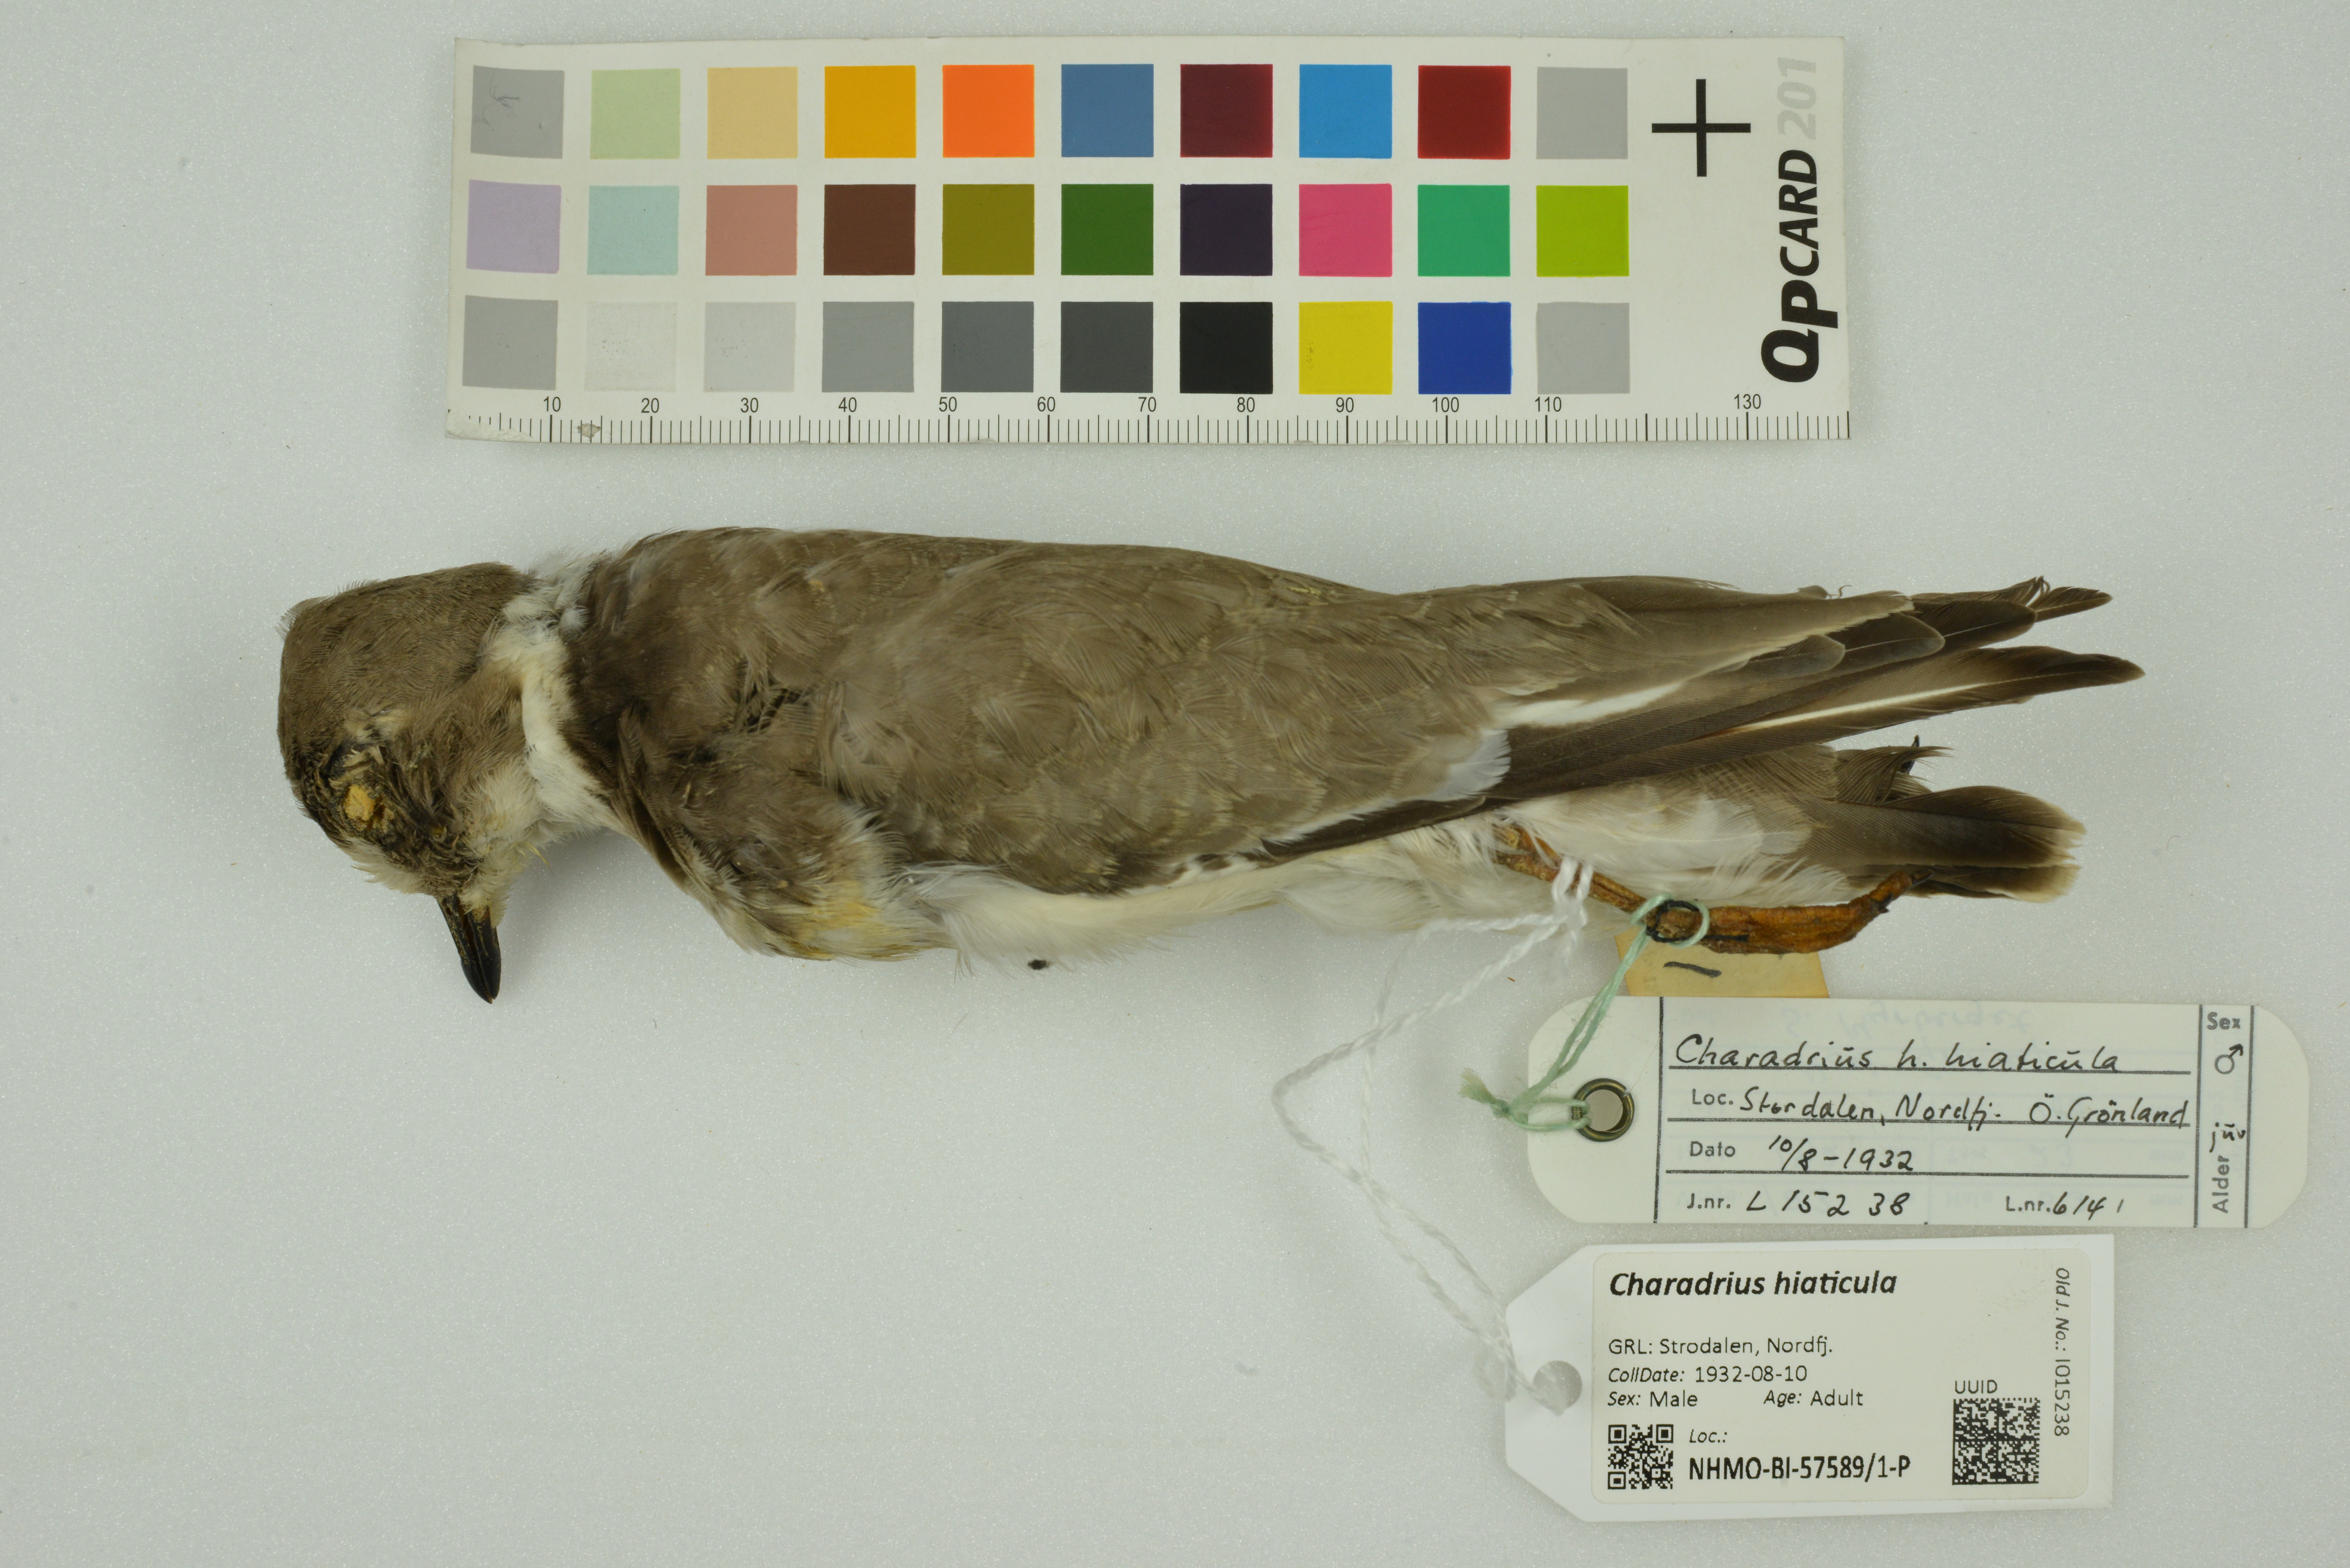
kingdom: Animalia
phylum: Chordata
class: Aves
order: Charadriiformes
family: Charadriidae
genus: Charadrius
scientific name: Charadrius hiaticula
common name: Common ringed plover
